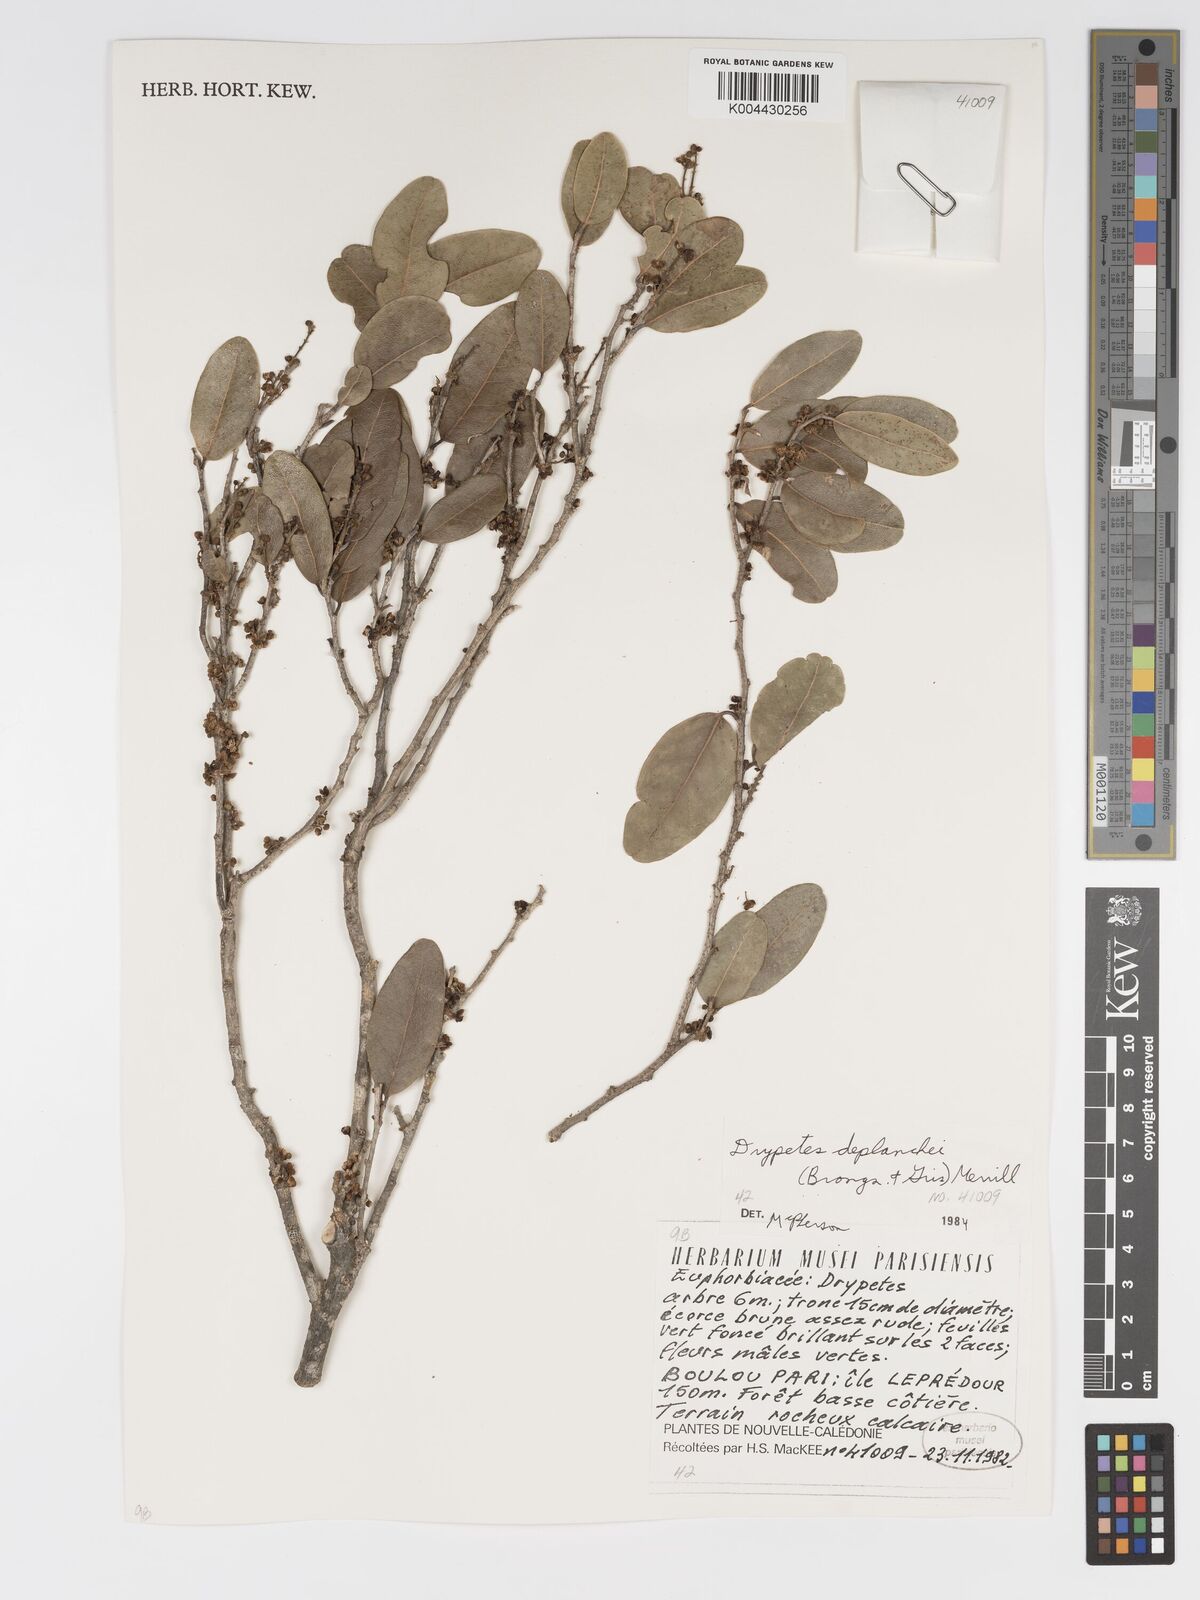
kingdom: Plantae
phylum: Tracheophyta
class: Magnoliopsida
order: Malpighiales
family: Putranjivaceae
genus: Drypetes
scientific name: Drypetes deplanchei
